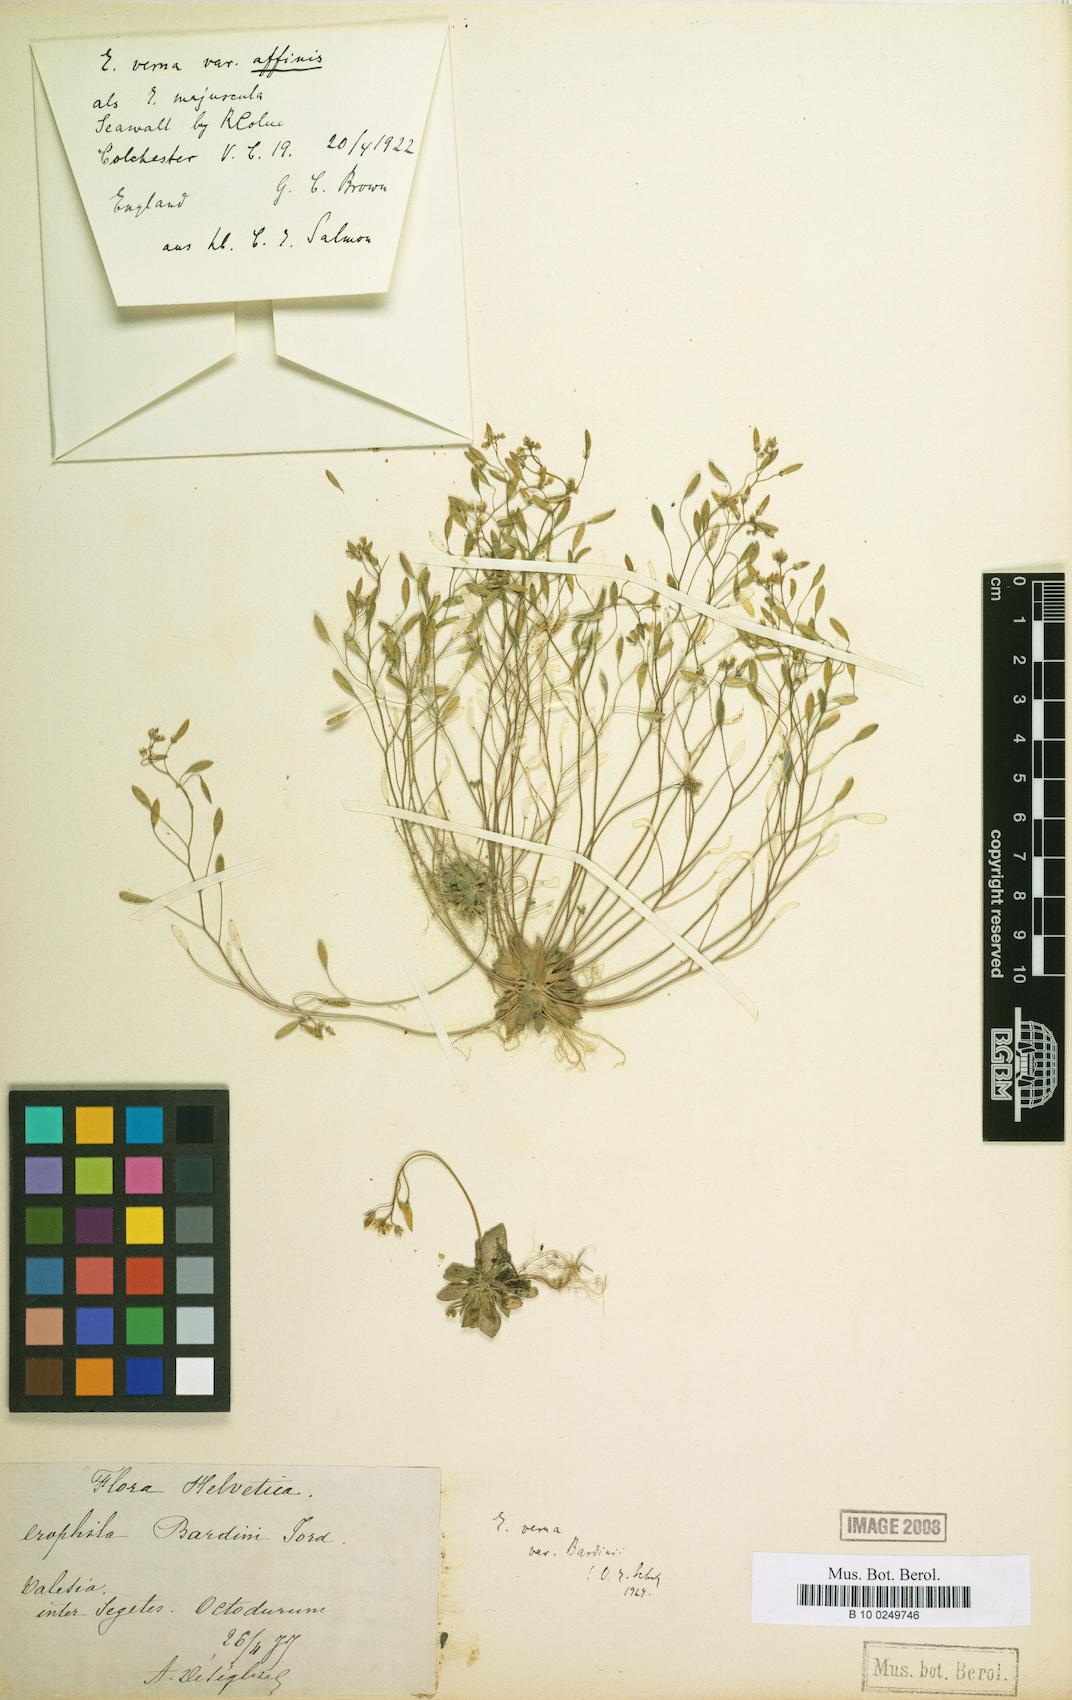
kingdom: Plantae
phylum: Tracheophyta
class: Magnoliopsida
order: Brassicales
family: Brassicaceae
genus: Draba
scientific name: Draba verna
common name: Spring draba
